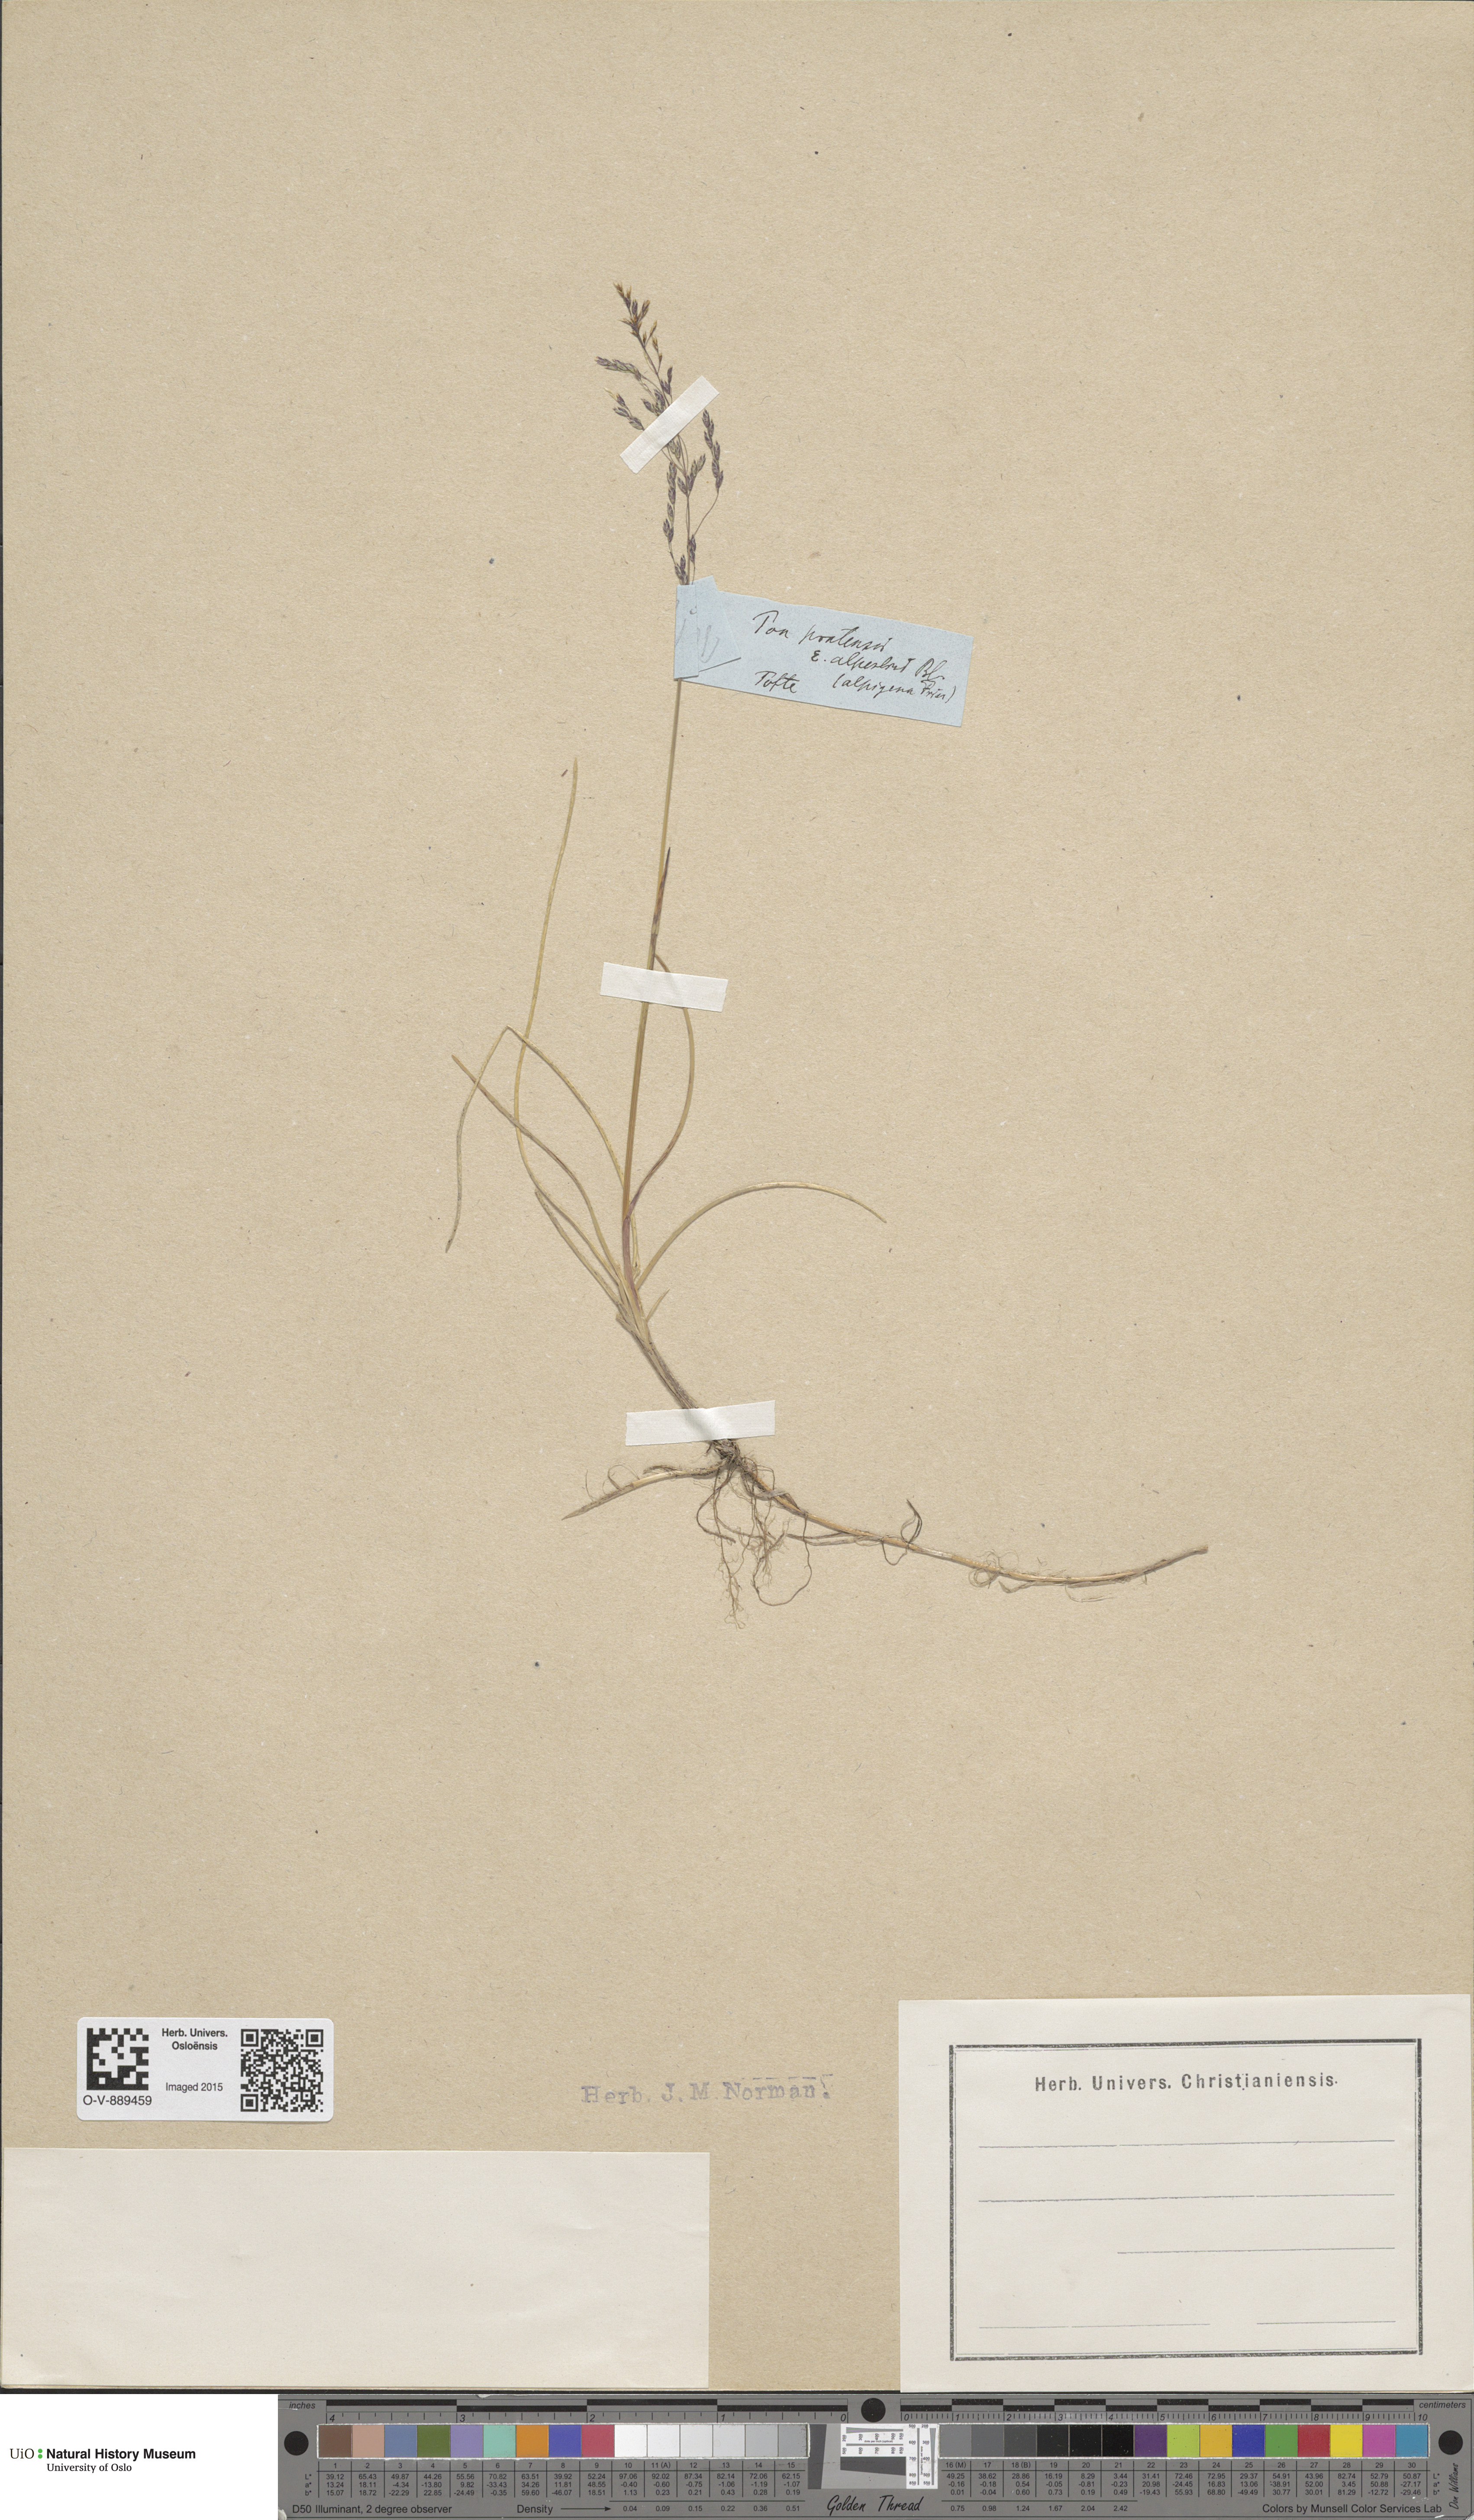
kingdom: Plantae
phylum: Tracheophyta
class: Liliopsida
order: Poales
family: Poaceae
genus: Poa
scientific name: Poa alpigena
